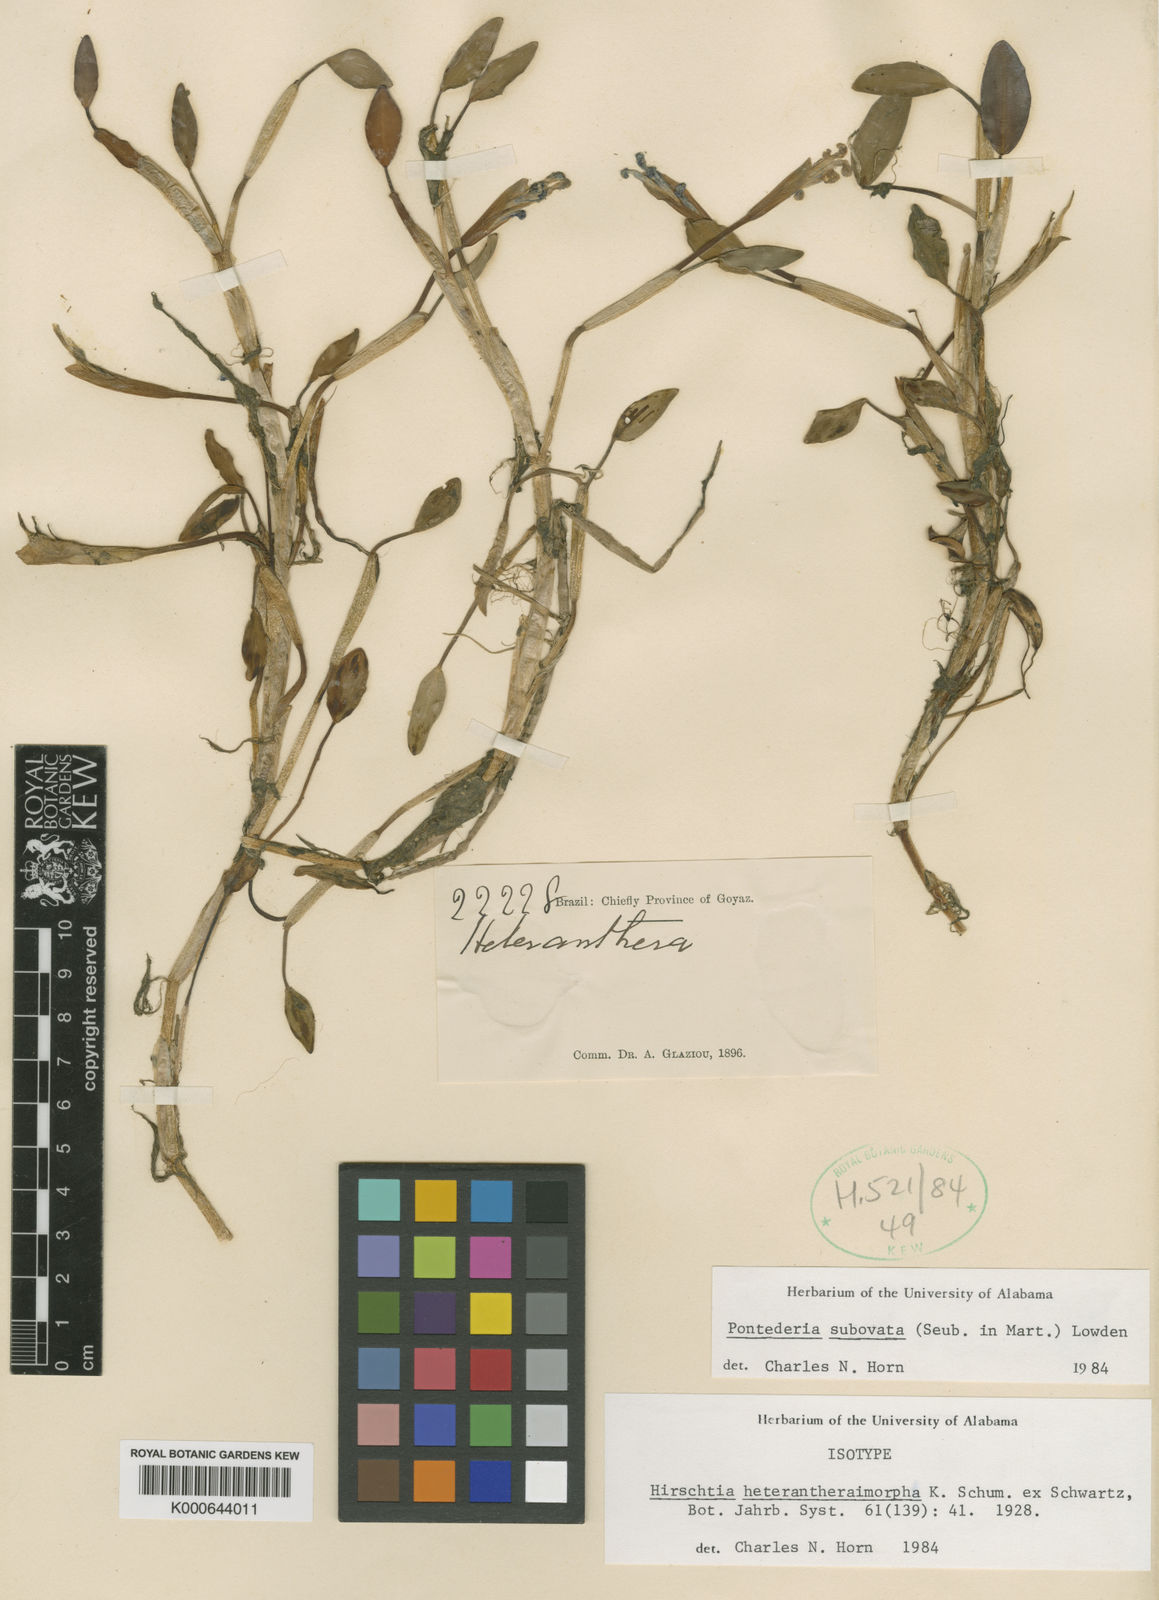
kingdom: Plantae
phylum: Tracheophyta
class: Liliopsida
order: Commelinales
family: Pontederiaceae
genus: Pontederia
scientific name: Pontederia subovata
